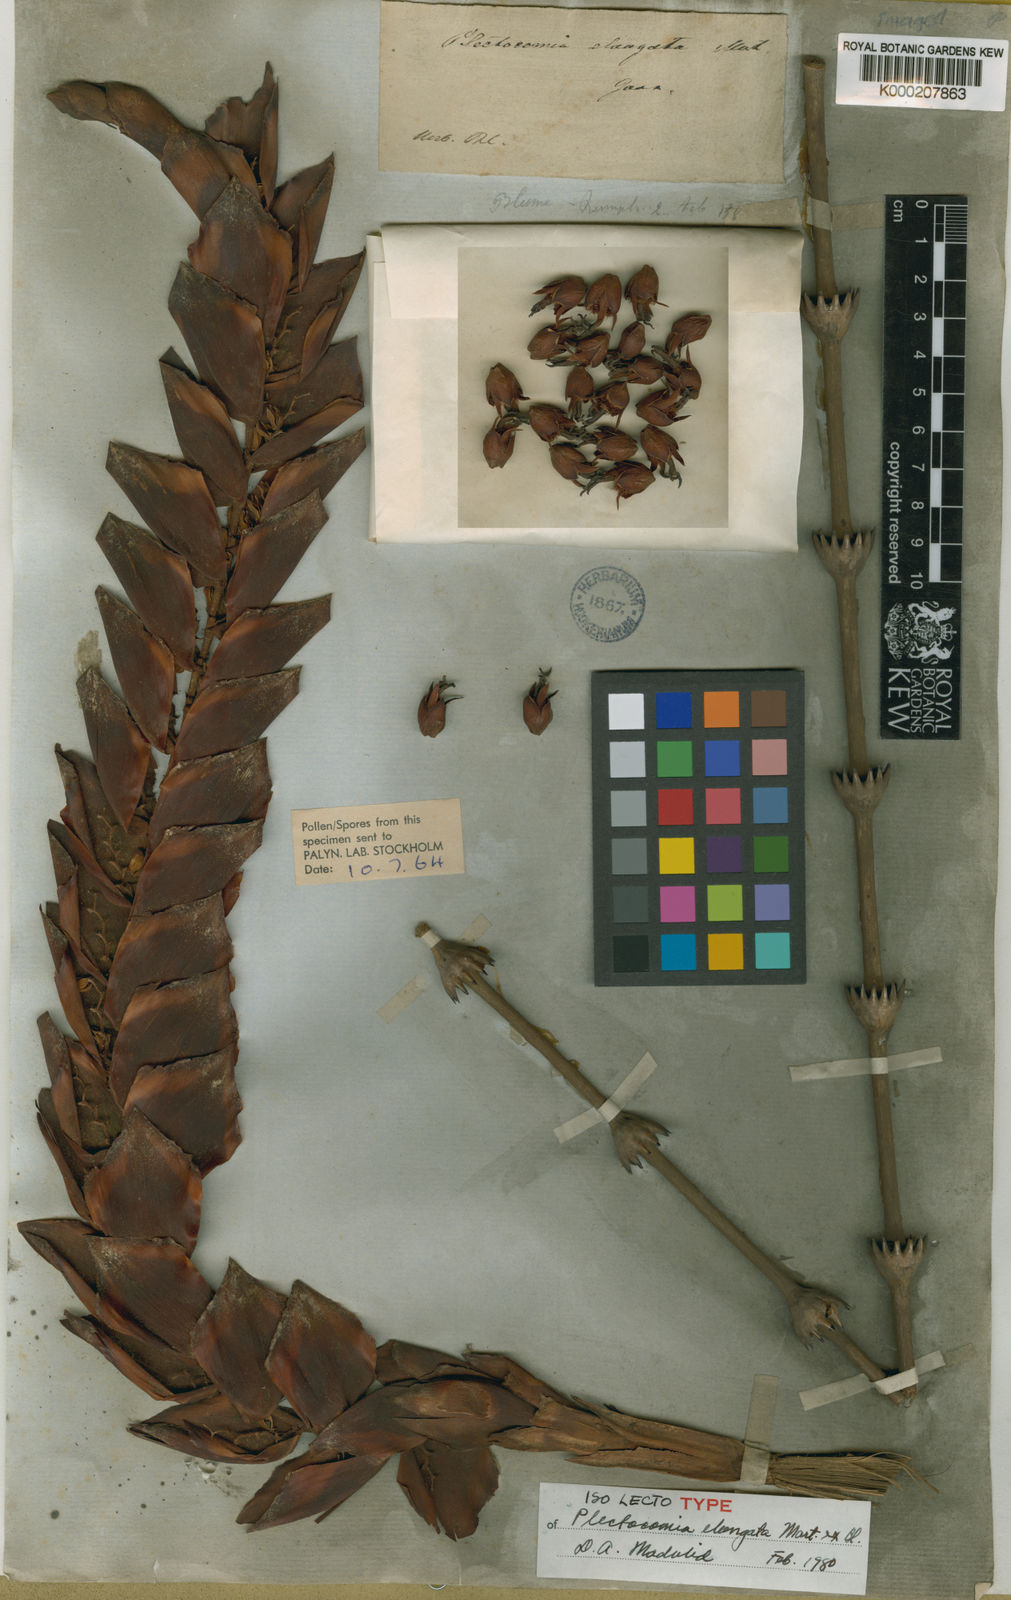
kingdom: Plantae
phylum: Tracheophyta
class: Liliopsida
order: Arecales
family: Arecaceae
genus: Plectocomia
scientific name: Plectocomia elongata
